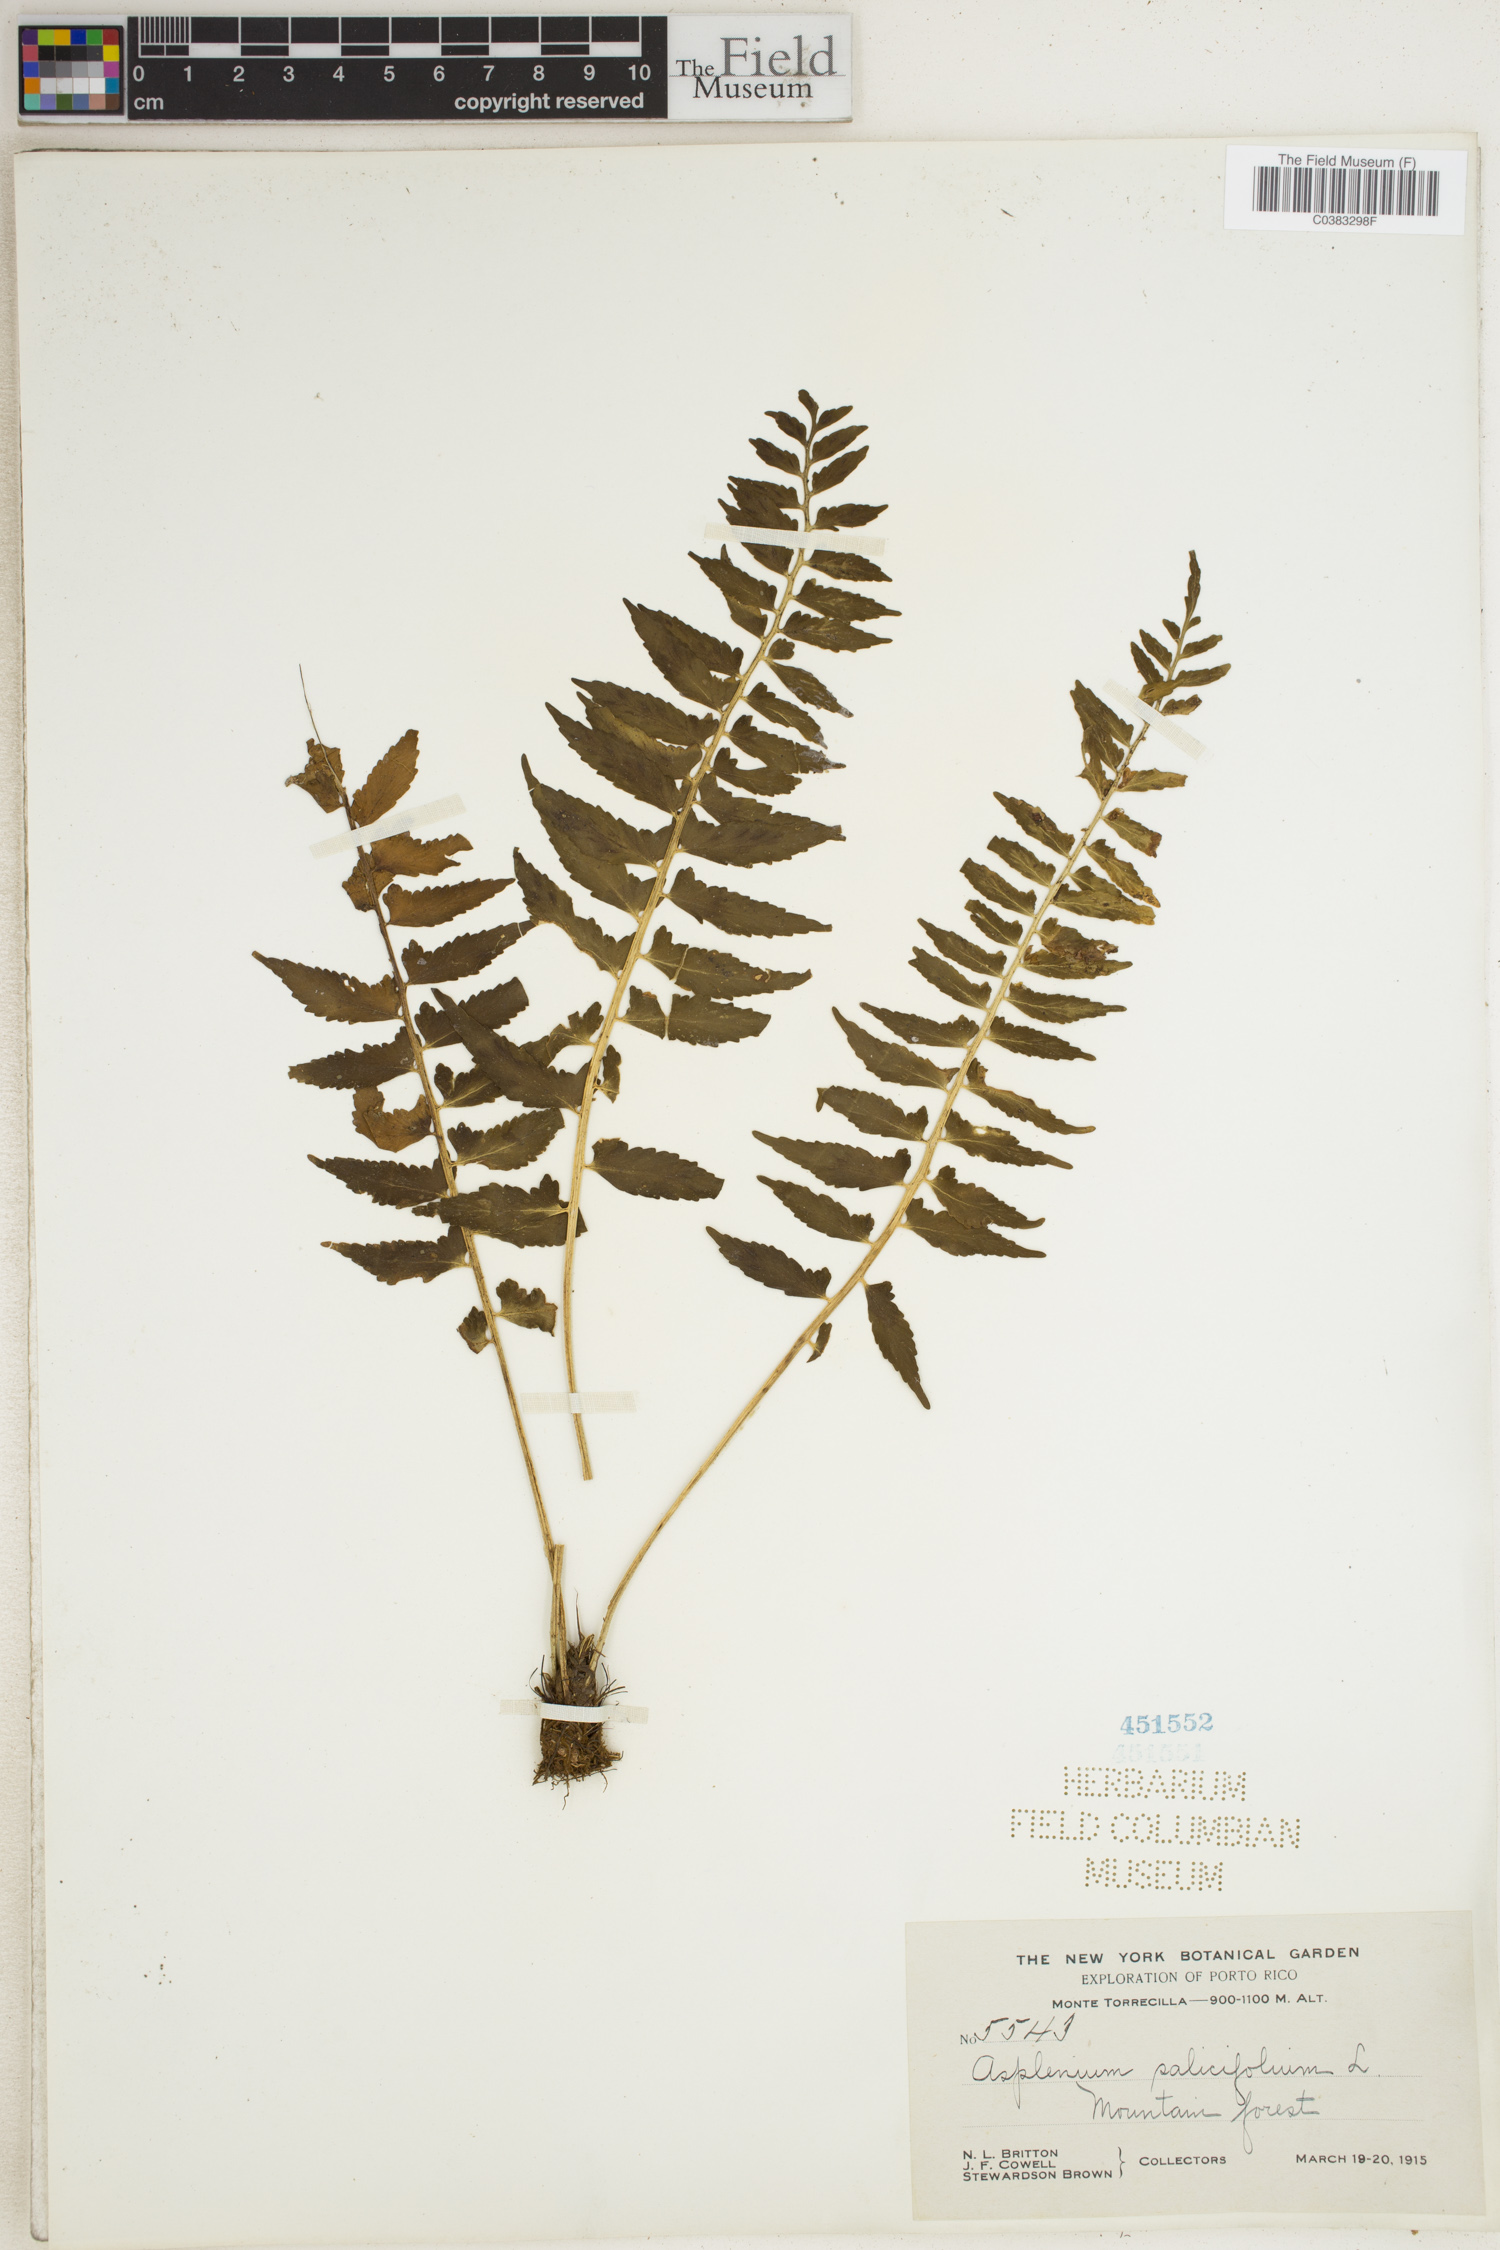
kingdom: Plantae
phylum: Tracheophyta
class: Polypodiopsida
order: Polypodiales
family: Aspleniaceae
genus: Asplenium
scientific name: Asplenium salicifolium
